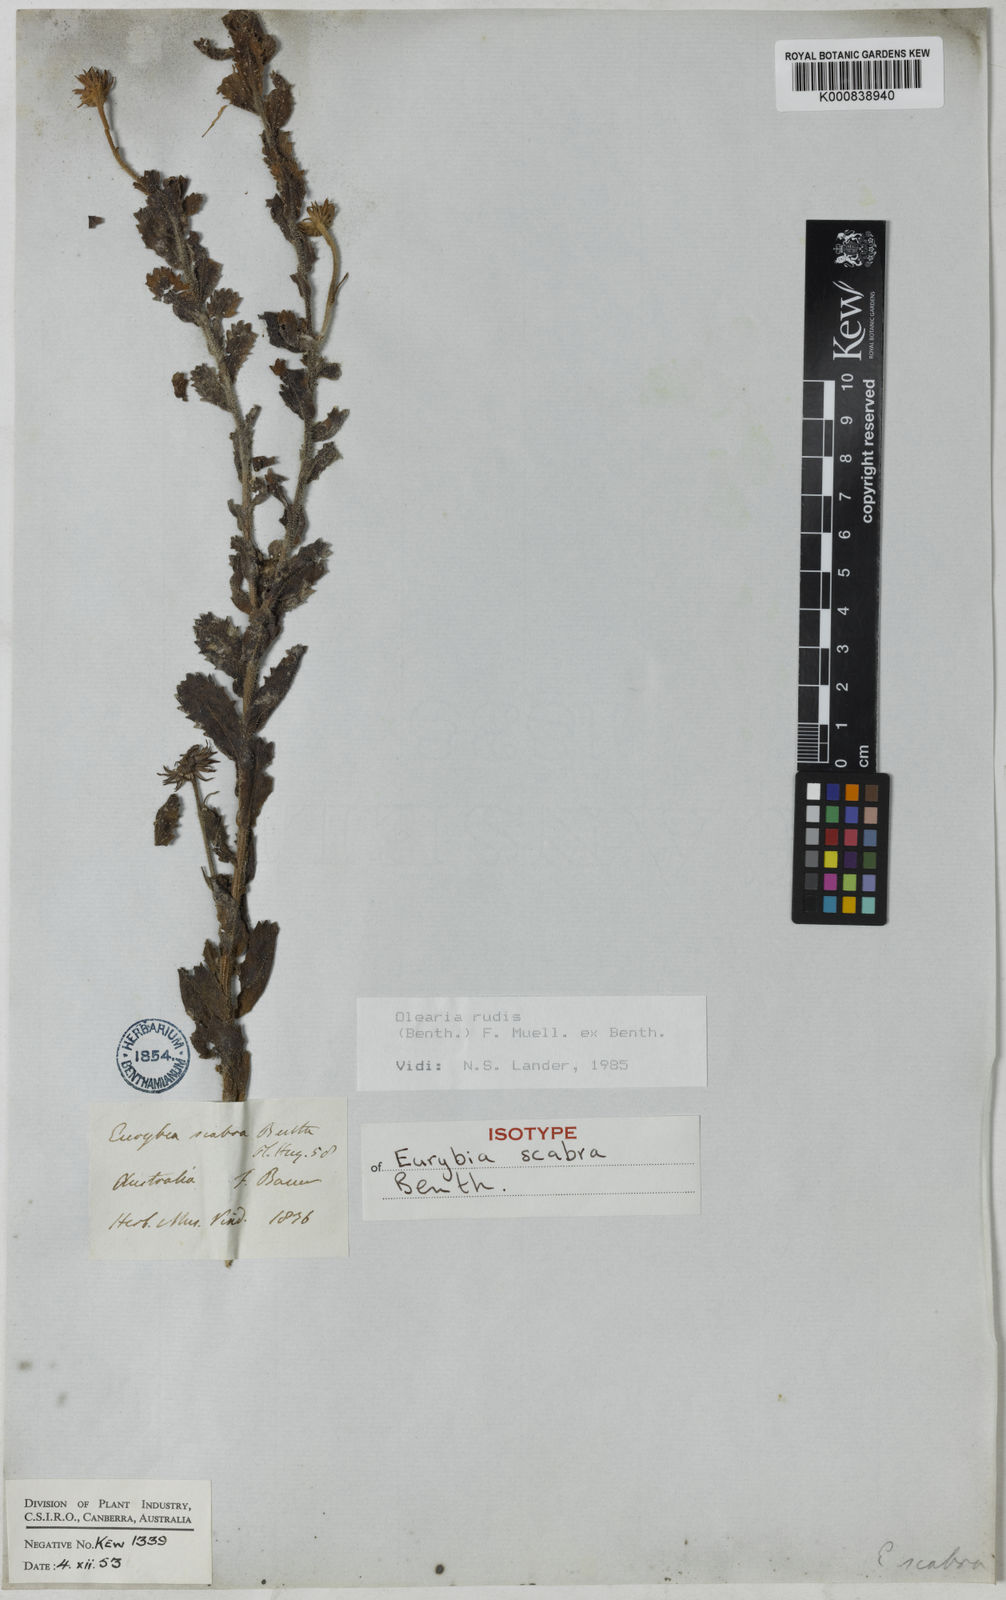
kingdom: Plantae
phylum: Tracheophyta
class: Magnoliopsida
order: Asterales
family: Asteraceae
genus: Muellerolaria
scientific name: Muellerolaria rudis
